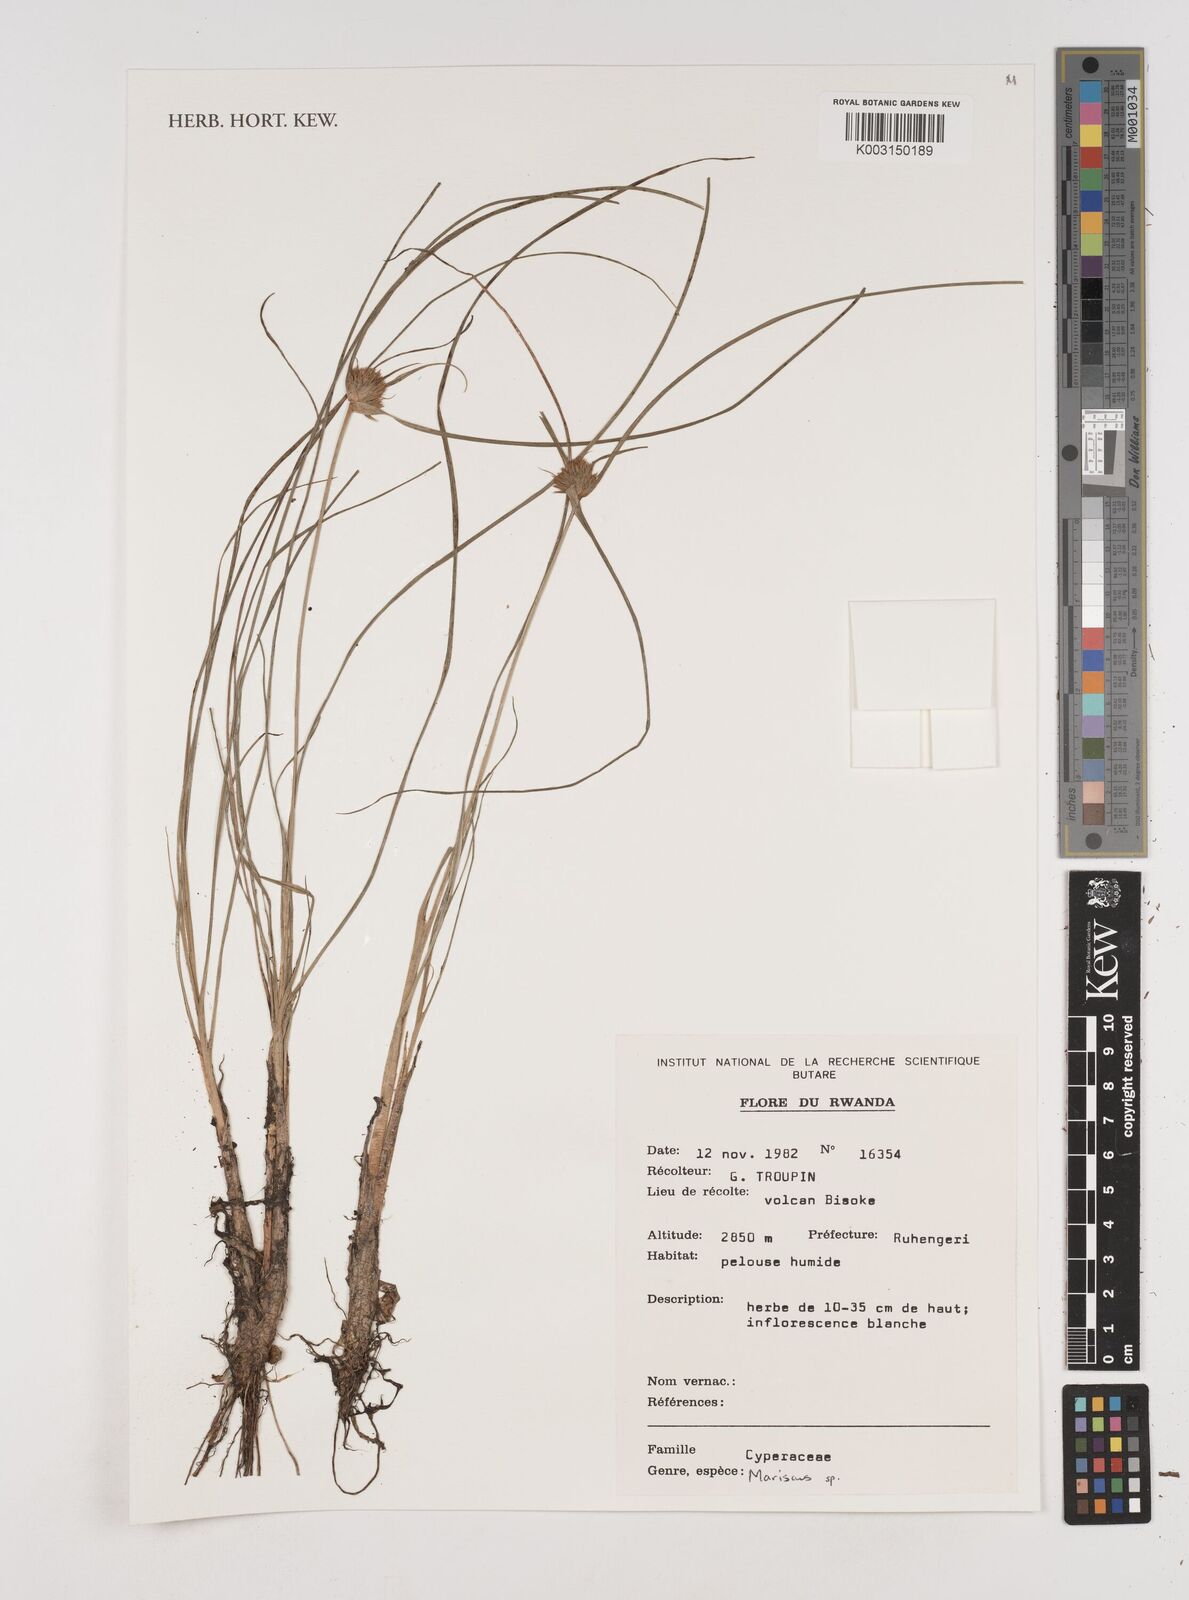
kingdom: Plantae
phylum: Tracheophyta
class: Liliopsida
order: Poales
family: Cyperaceae
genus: Cyperus
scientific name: Cyperus
